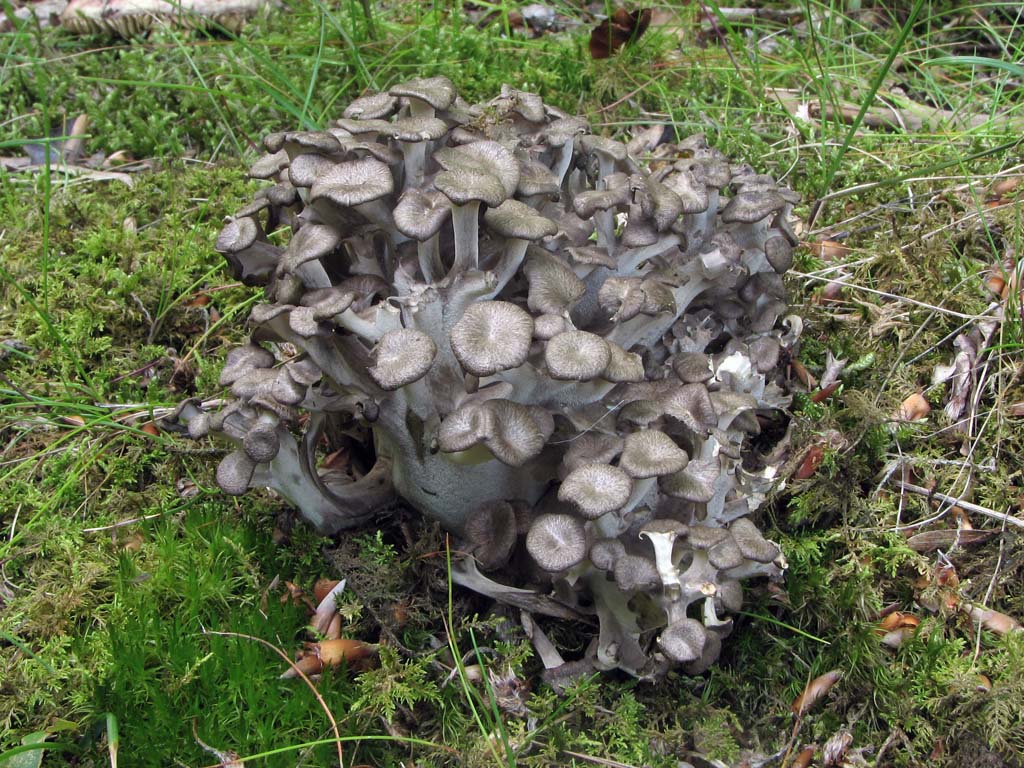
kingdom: Fungi
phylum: Basidiomycota
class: Agaricomycetes
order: Polyporales
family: Polyporaceae
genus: Polyporus
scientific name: Polyporus umbellatus
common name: skærmformet stilkporesvamp
